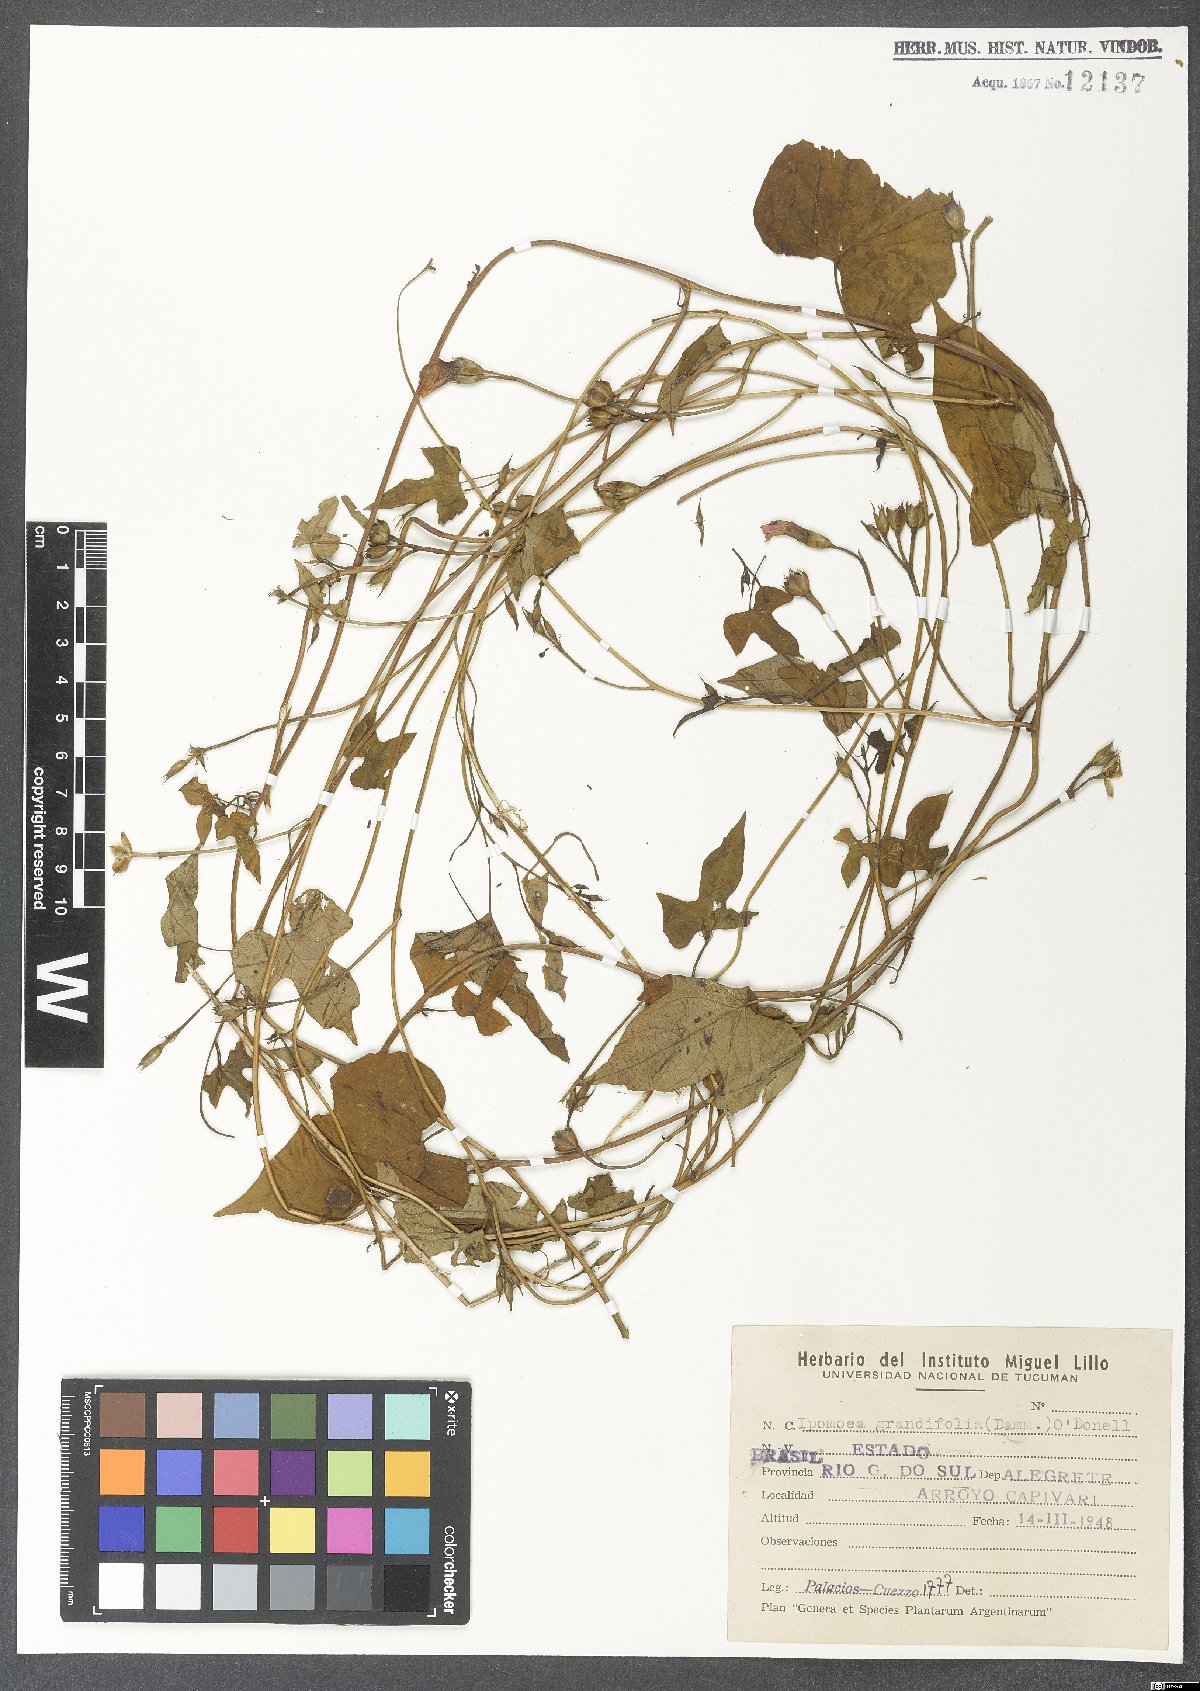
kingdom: Plantae
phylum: Tracheophyta
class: Magnoliopsida
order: Solanales
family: Convolvulaceae
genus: Ipomoea
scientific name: Ipomoea grandifolia
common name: Aiea morning glory
